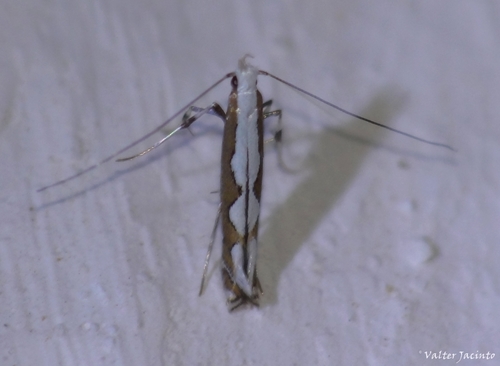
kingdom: Animalia
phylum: Arthropoda
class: Insecta
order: Lepidoptera
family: Gracillariidae
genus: Dialectica
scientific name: Dialectica scalariella
